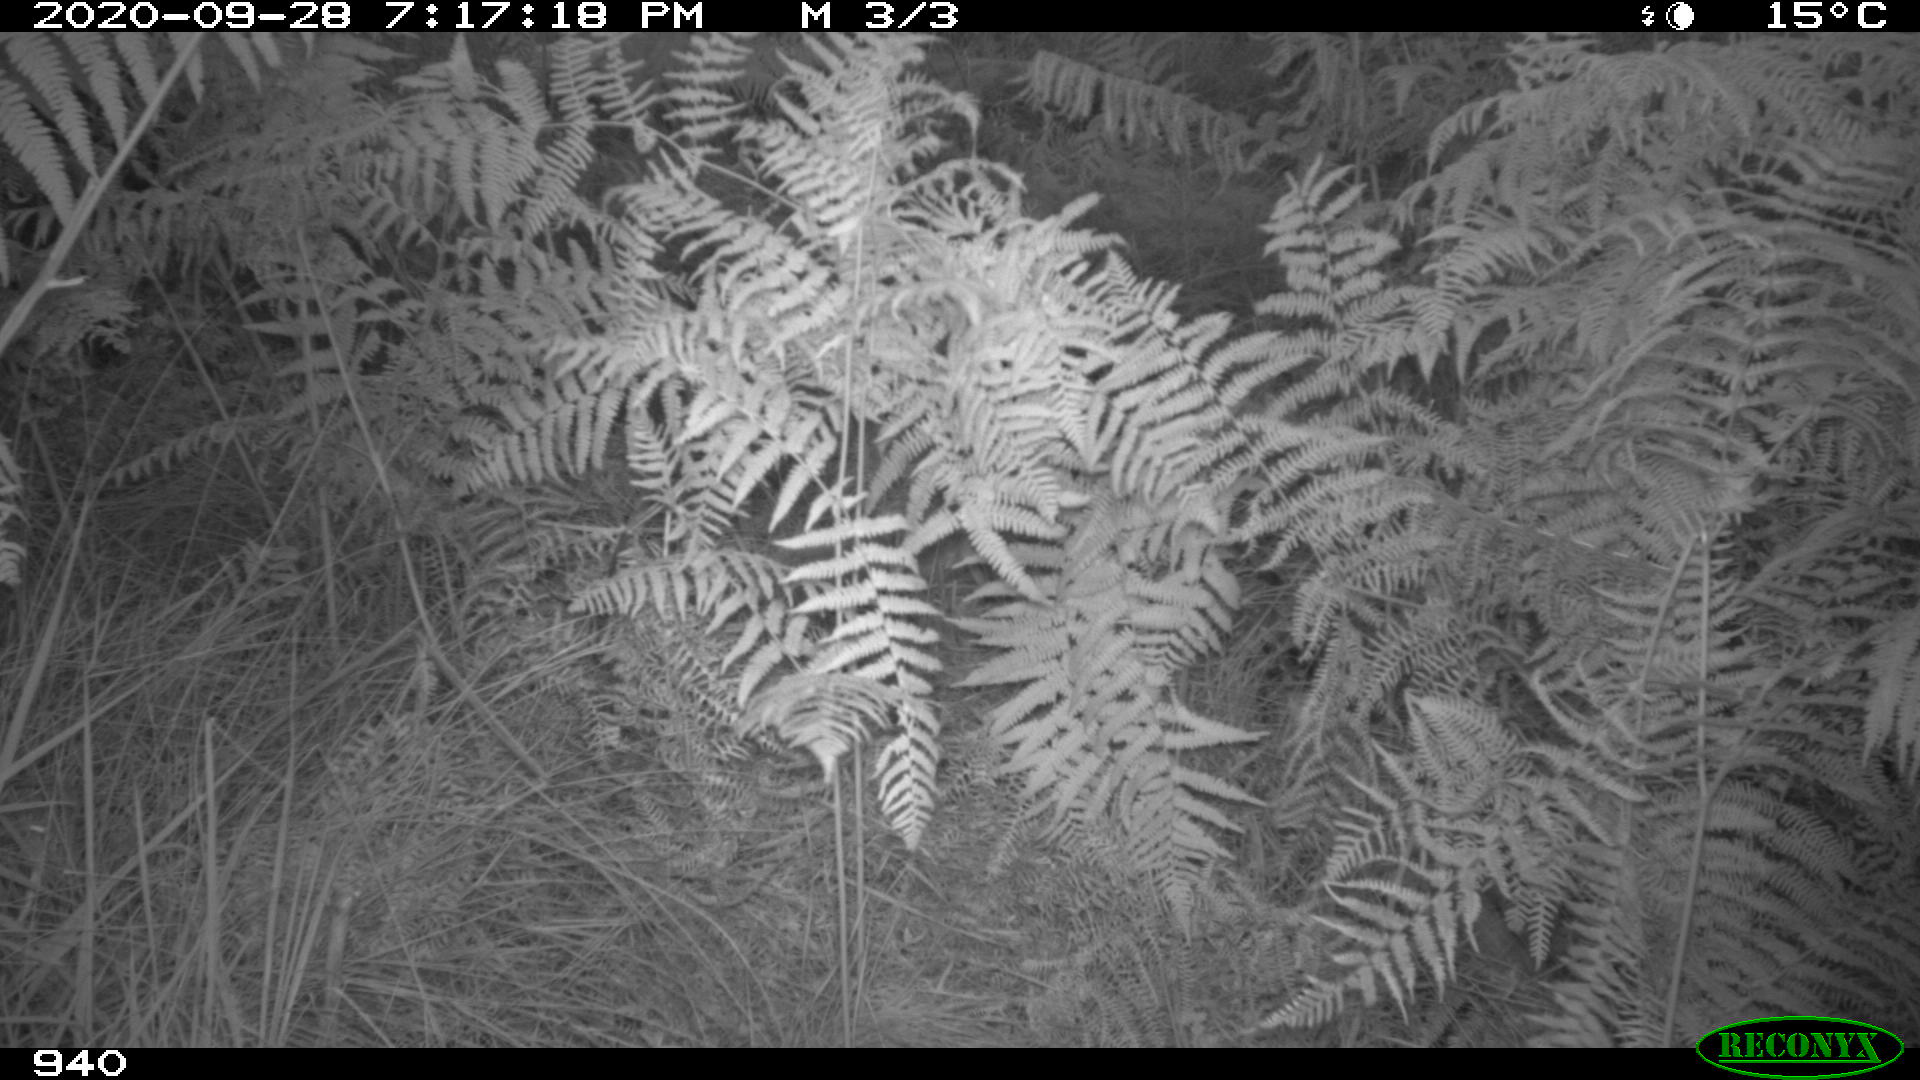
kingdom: Animalia
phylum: Chordata
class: Mammalia
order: Artiodactyla
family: Suidae
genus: Sus
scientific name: Sus scrofa
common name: Wild boar
